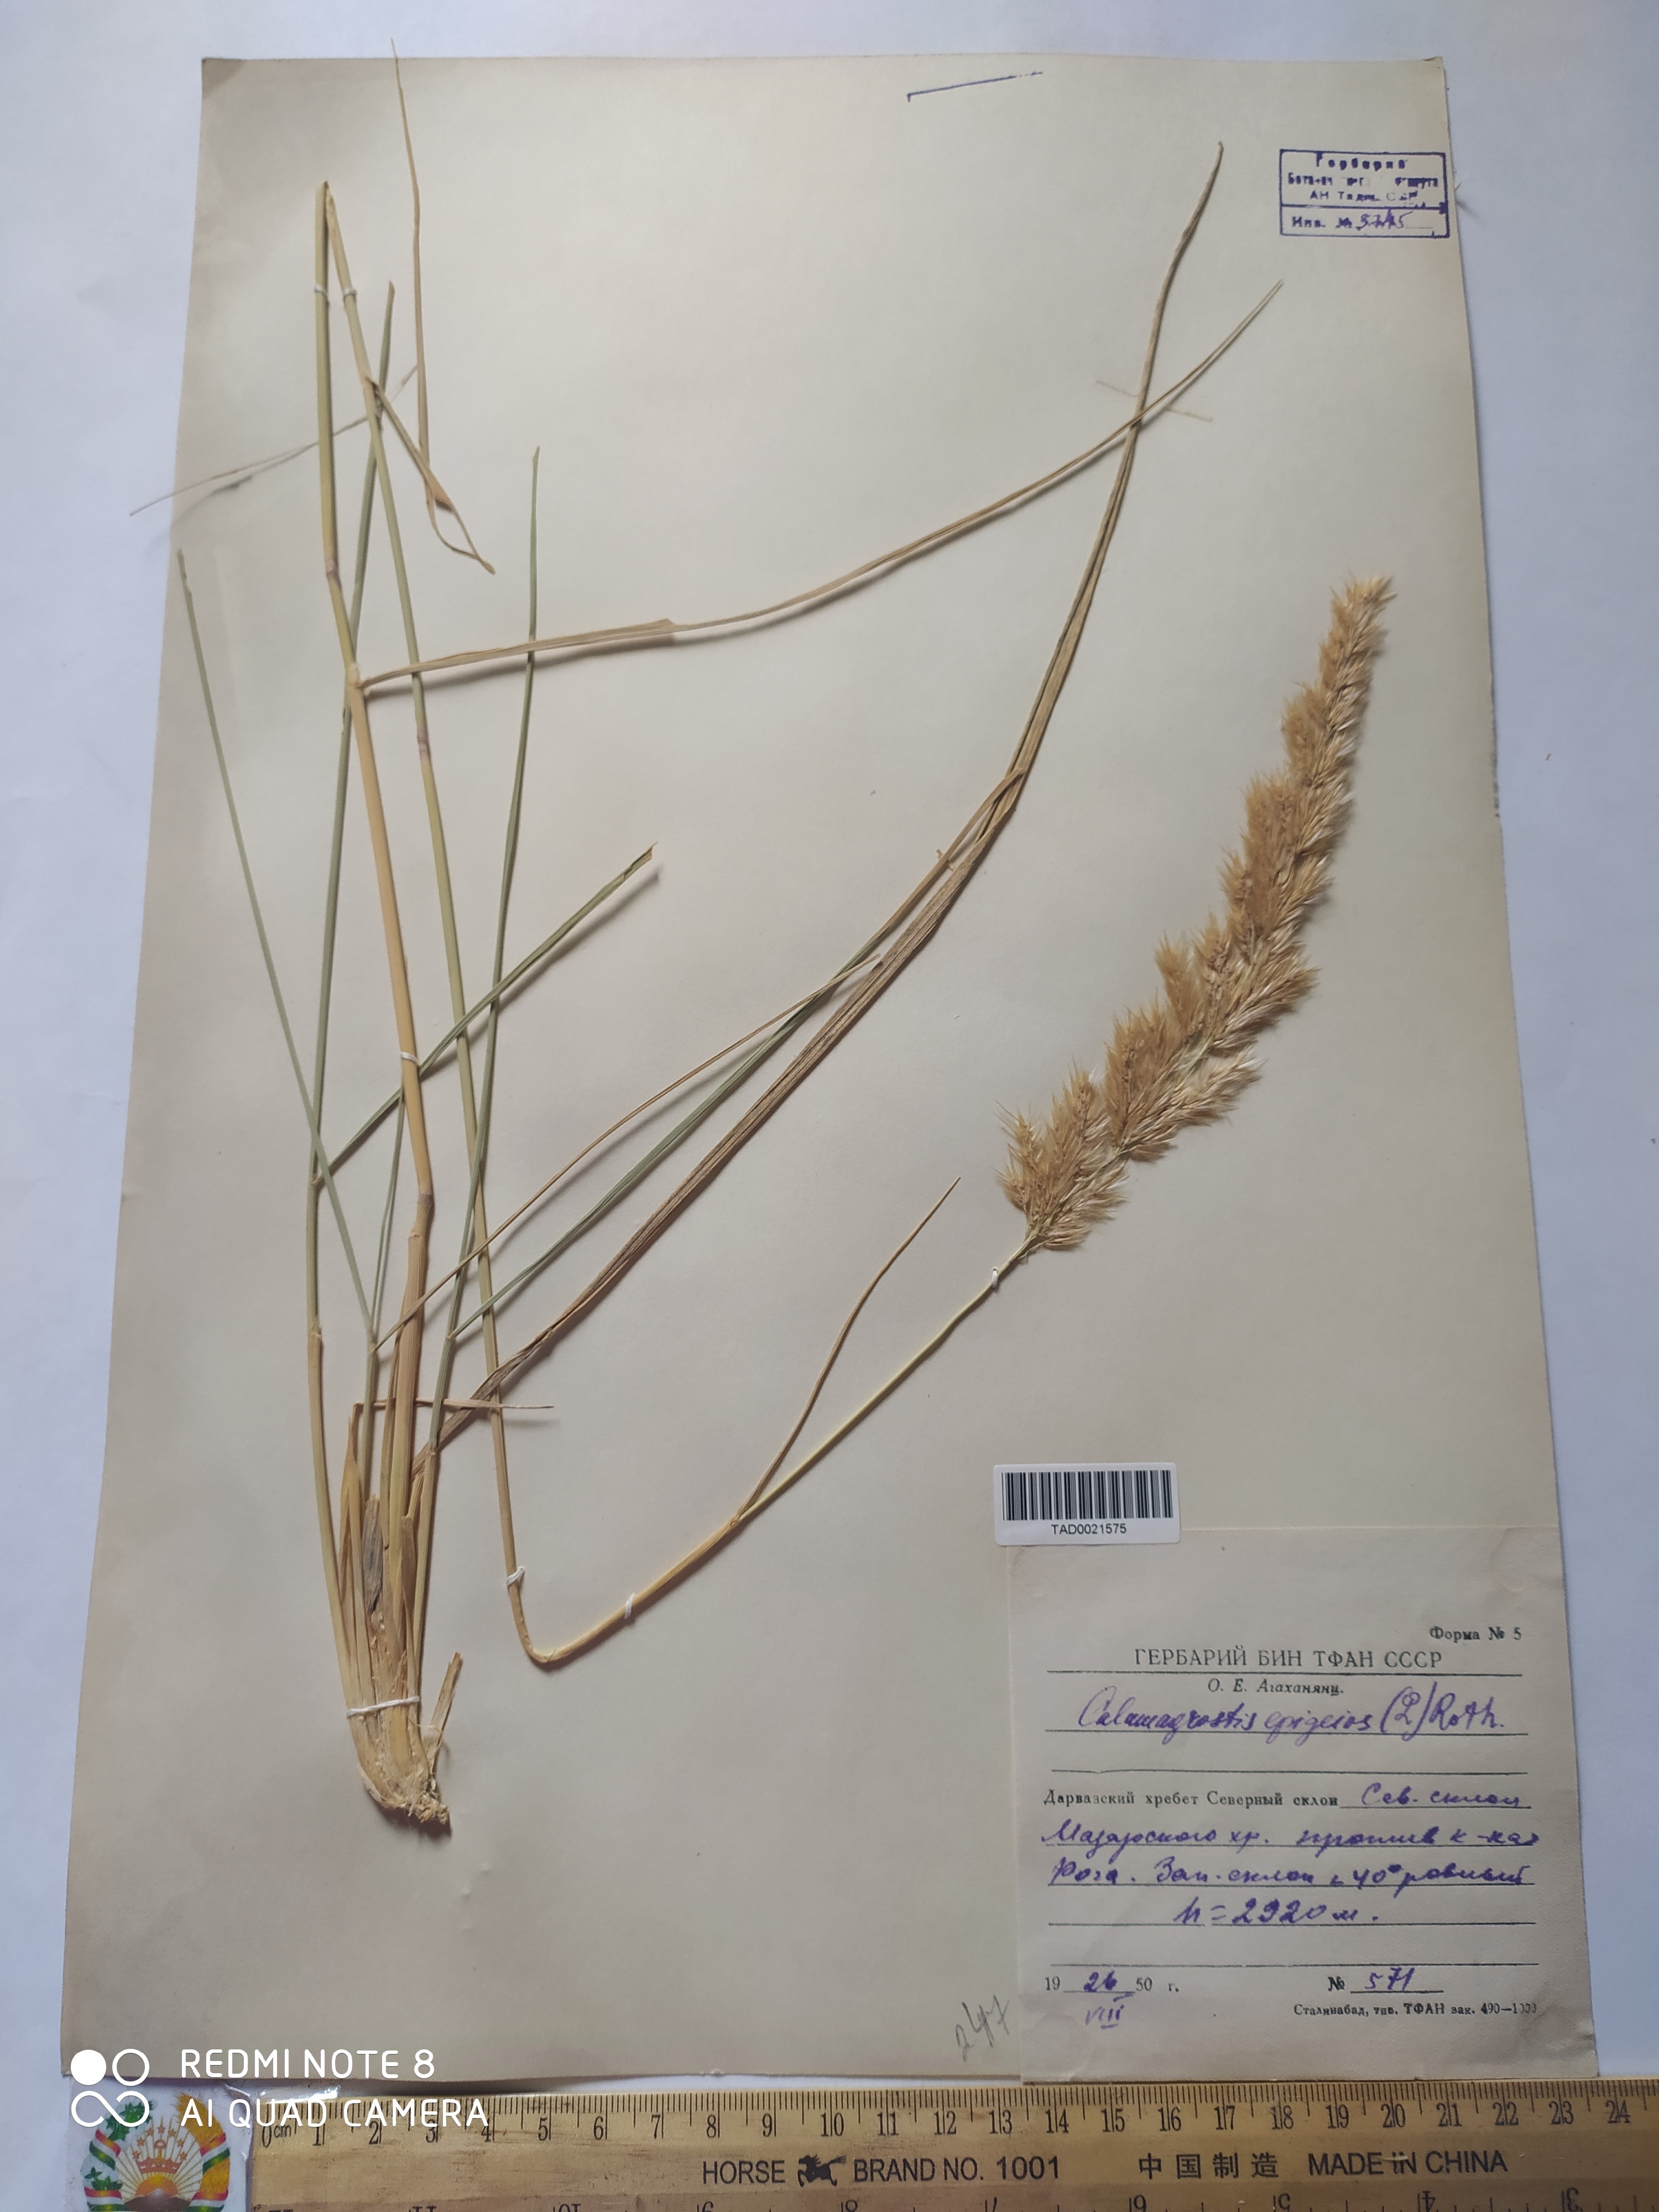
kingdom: Plantae
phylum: Tracheophyta
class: Liliopsida
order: Poales
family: Poaceae
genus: Calamagrostis
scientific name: Calamagrostis epigejos
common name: Wood small-reed
